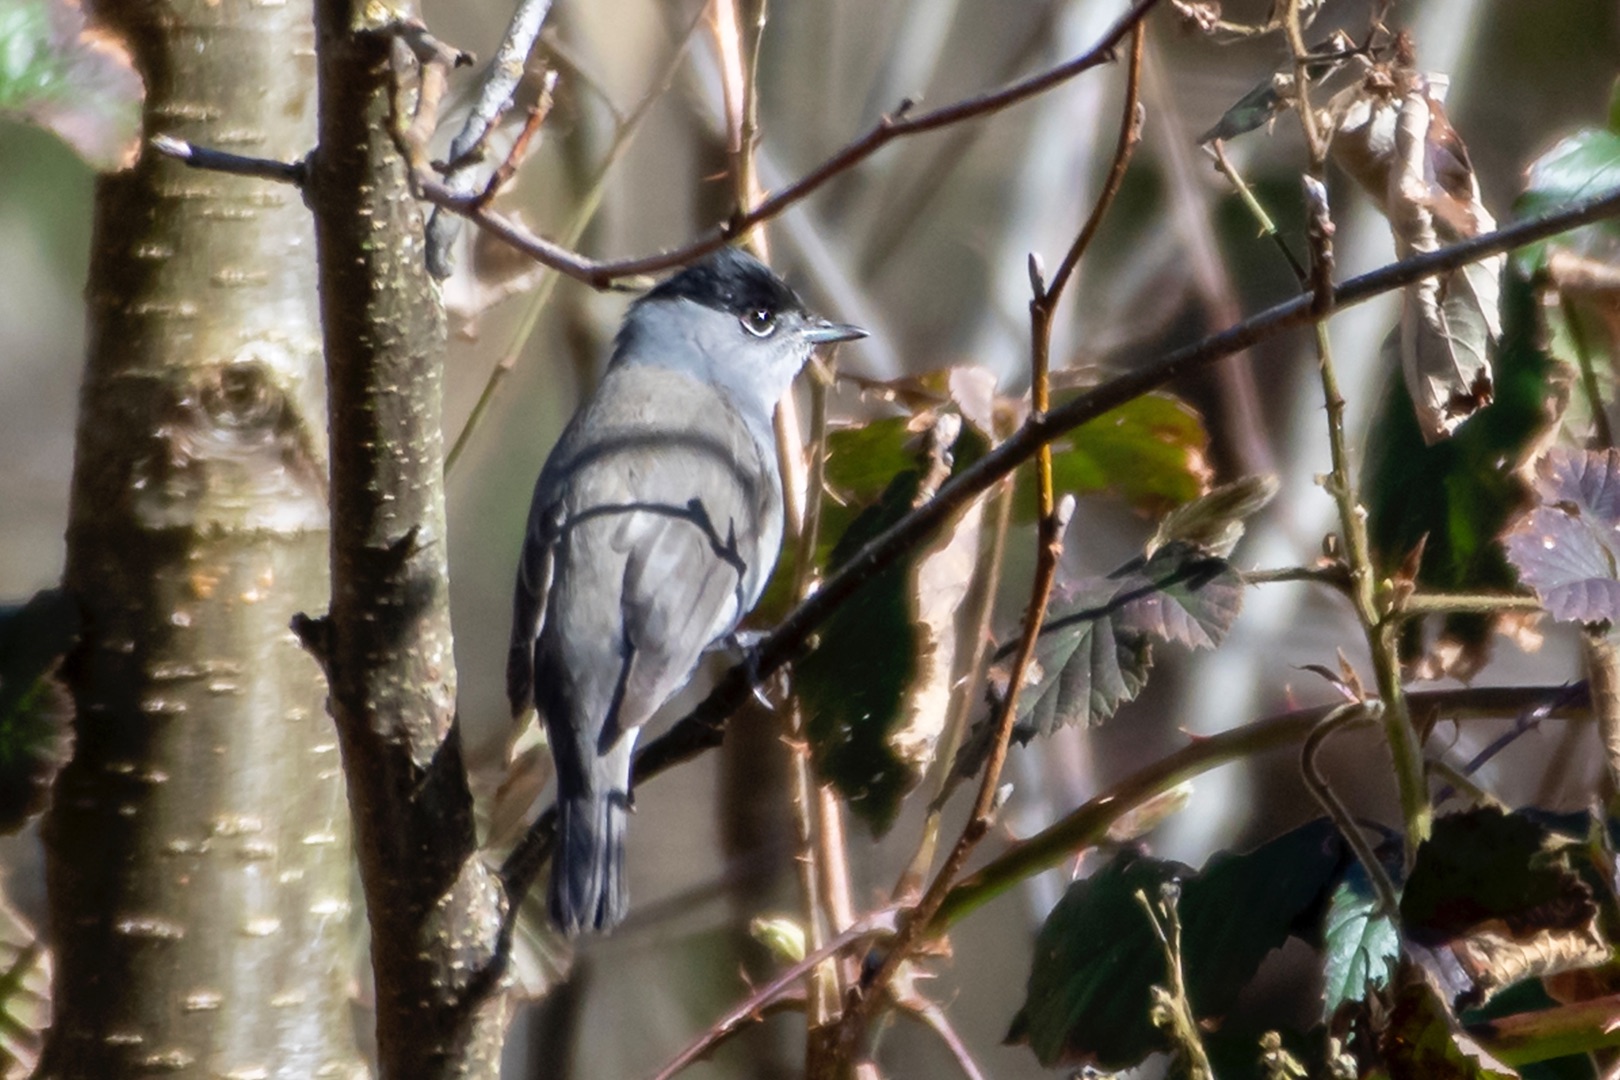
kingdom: Animalia
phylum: Chordata
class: Aves
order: Passeriformes
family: Sylviidae
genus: Sylvia
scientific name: Sylvia atricapilla
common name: Munk
